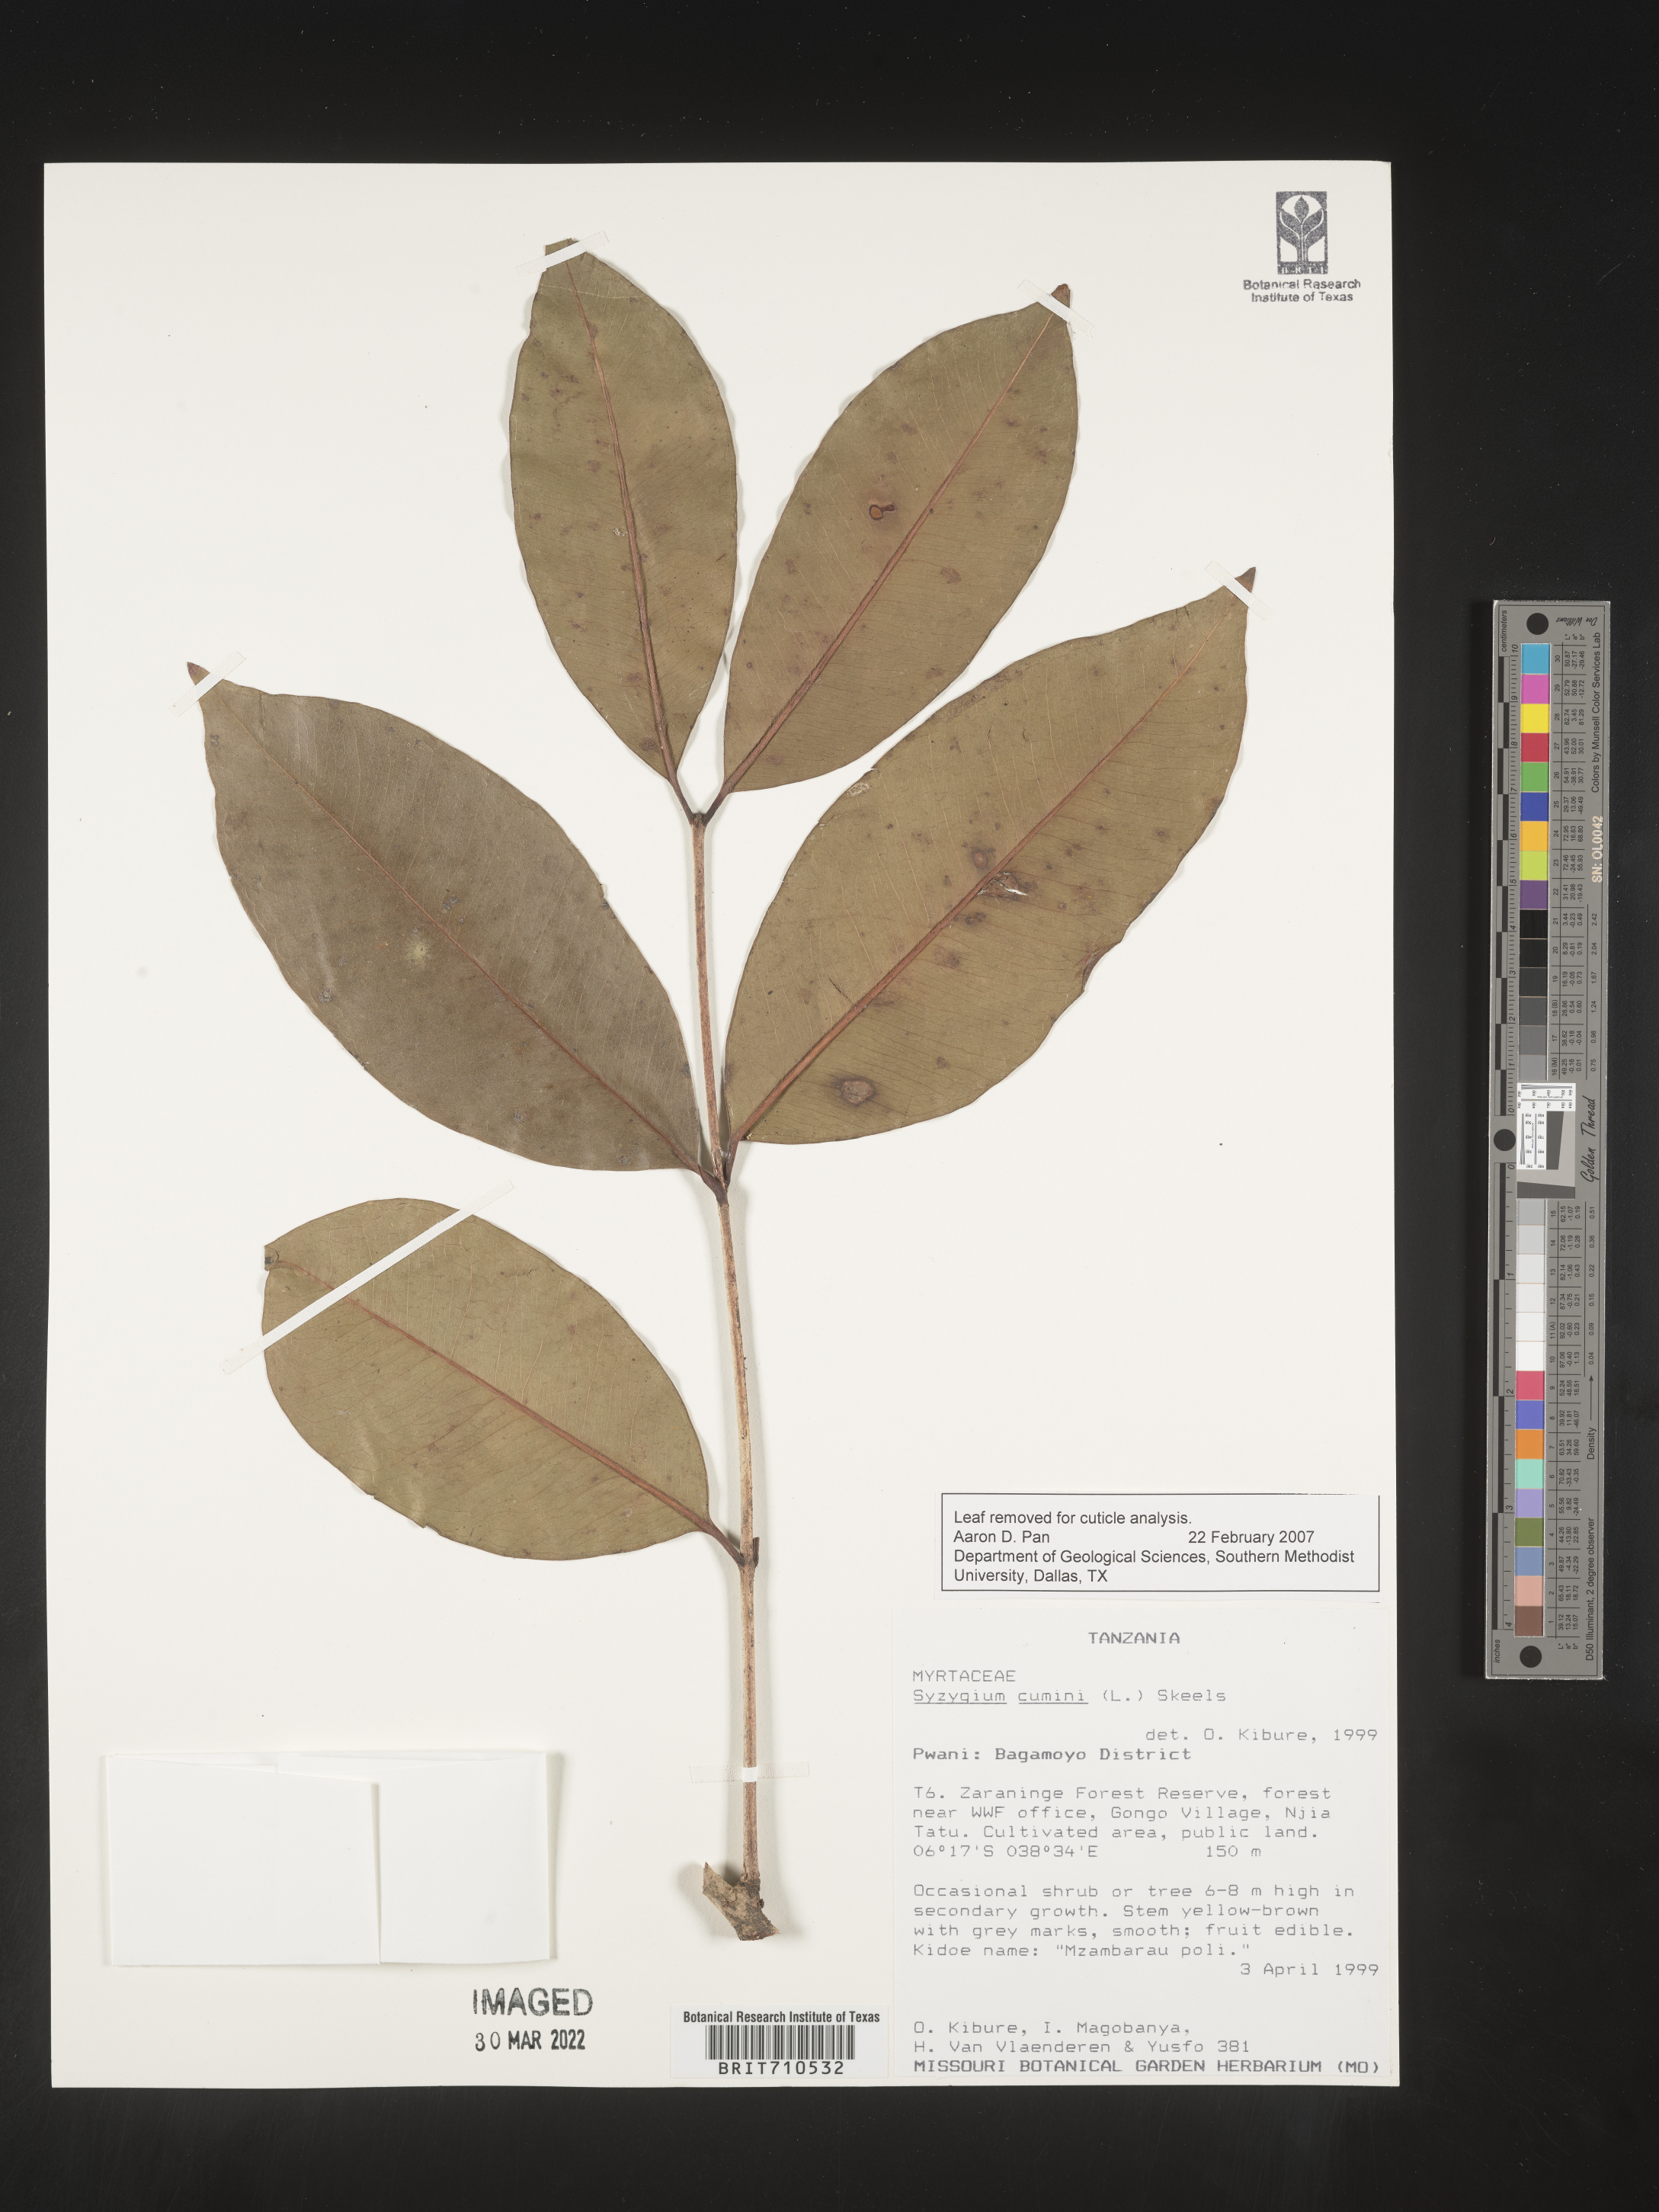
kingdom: Plantae
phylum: Tracheophyta
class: Magnoliopsida
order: Myrtales
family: Myrtaceae
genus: Syzygium
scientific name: Syzygium
